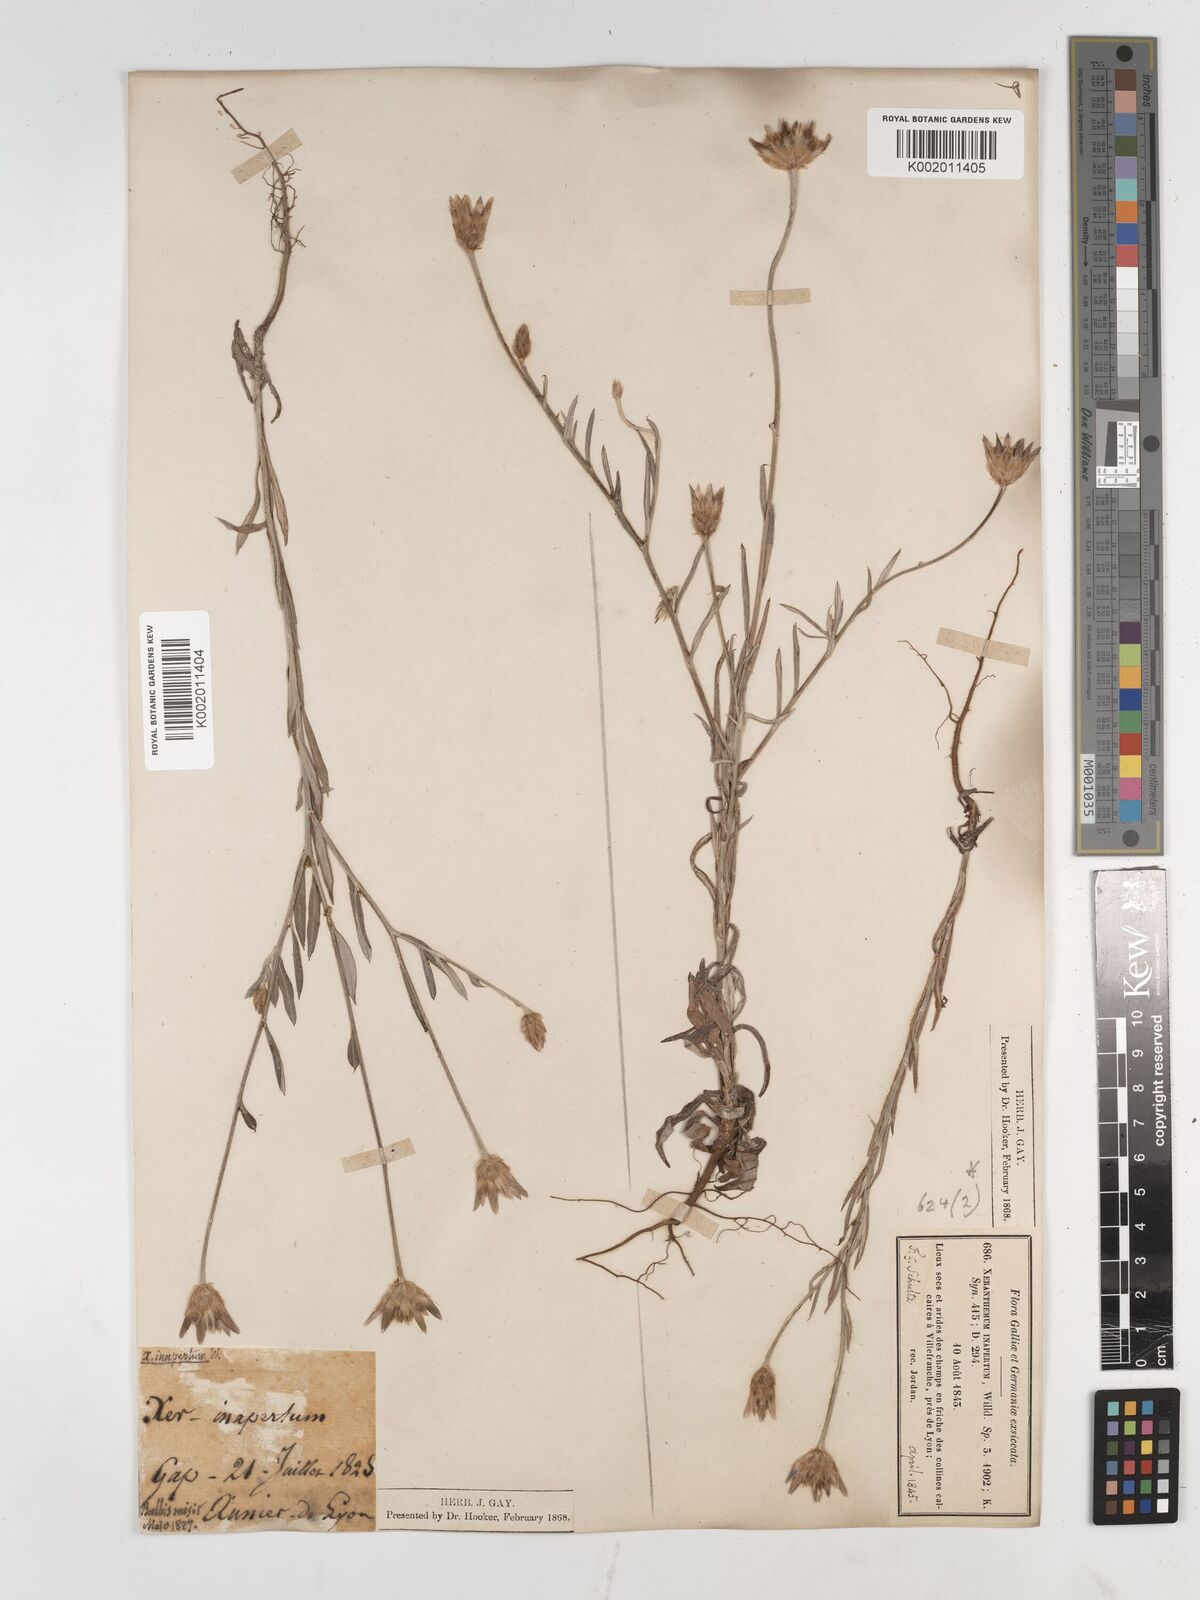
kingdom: Plantae
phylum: Tracheophyta
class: Magnoliopsida
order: Asterales
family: Asteraceae
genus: Xeranthemum
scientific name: Xeranthemum inapertum
